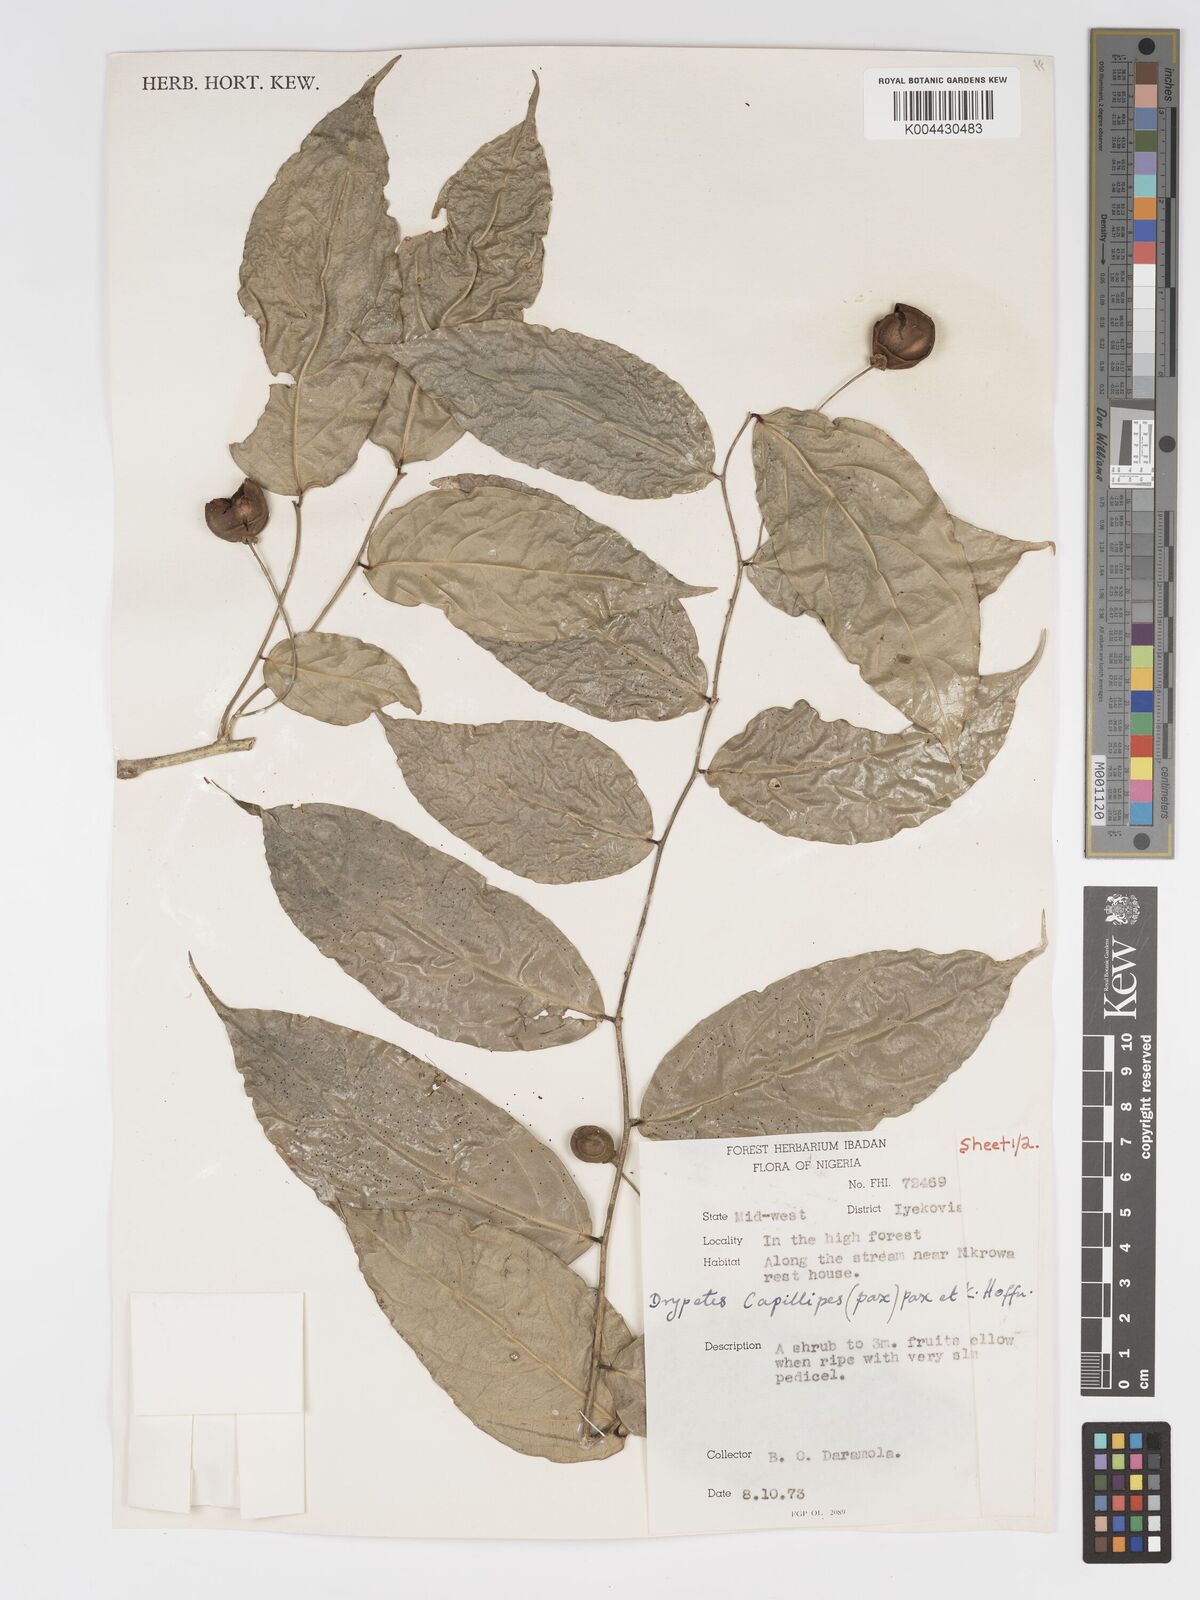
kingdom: Plantae
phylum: Tracheophyta
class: Magnoliopsida
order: Malpighiales
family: Putranjivaceae
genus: Drypetes
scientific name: Drypetes capillipes
